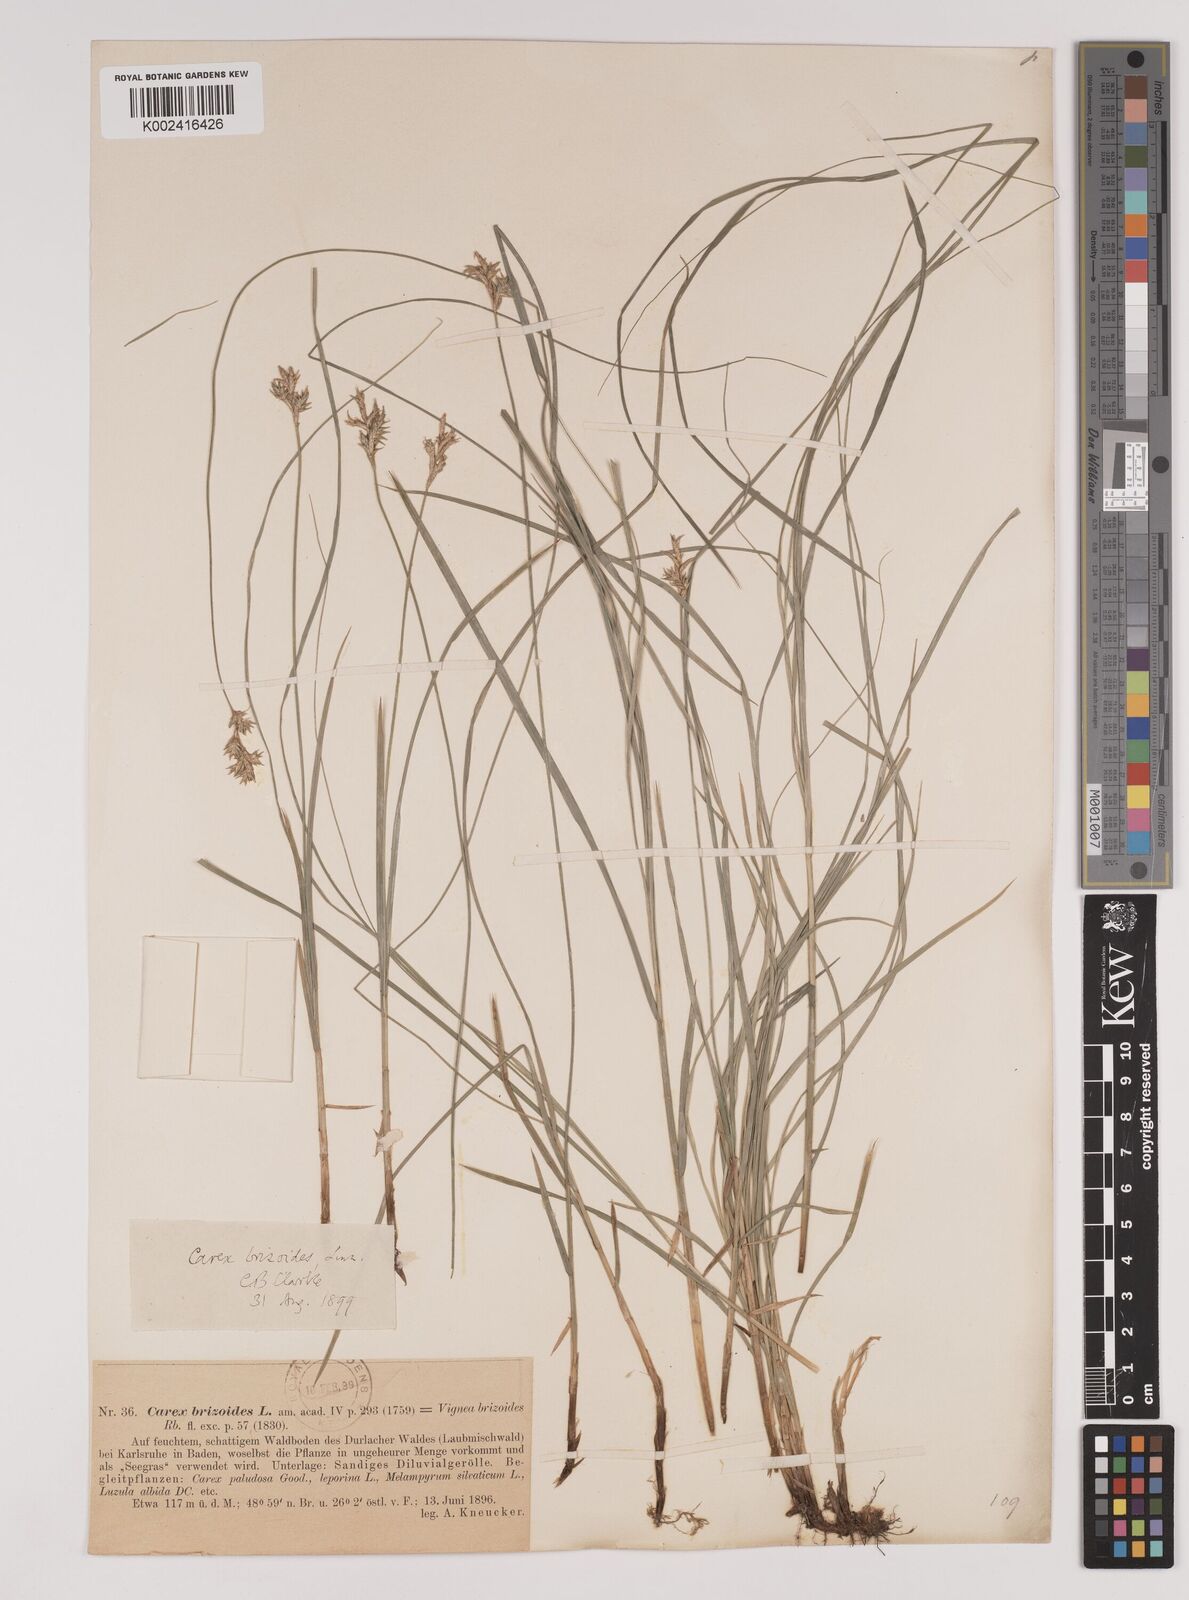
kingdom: Plantae
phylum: Tracheophyta
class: Liliopsida
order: Poales
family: Cyperaceae
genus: Carex
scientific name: Carex brizoides
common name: Quaking-grass sedge
